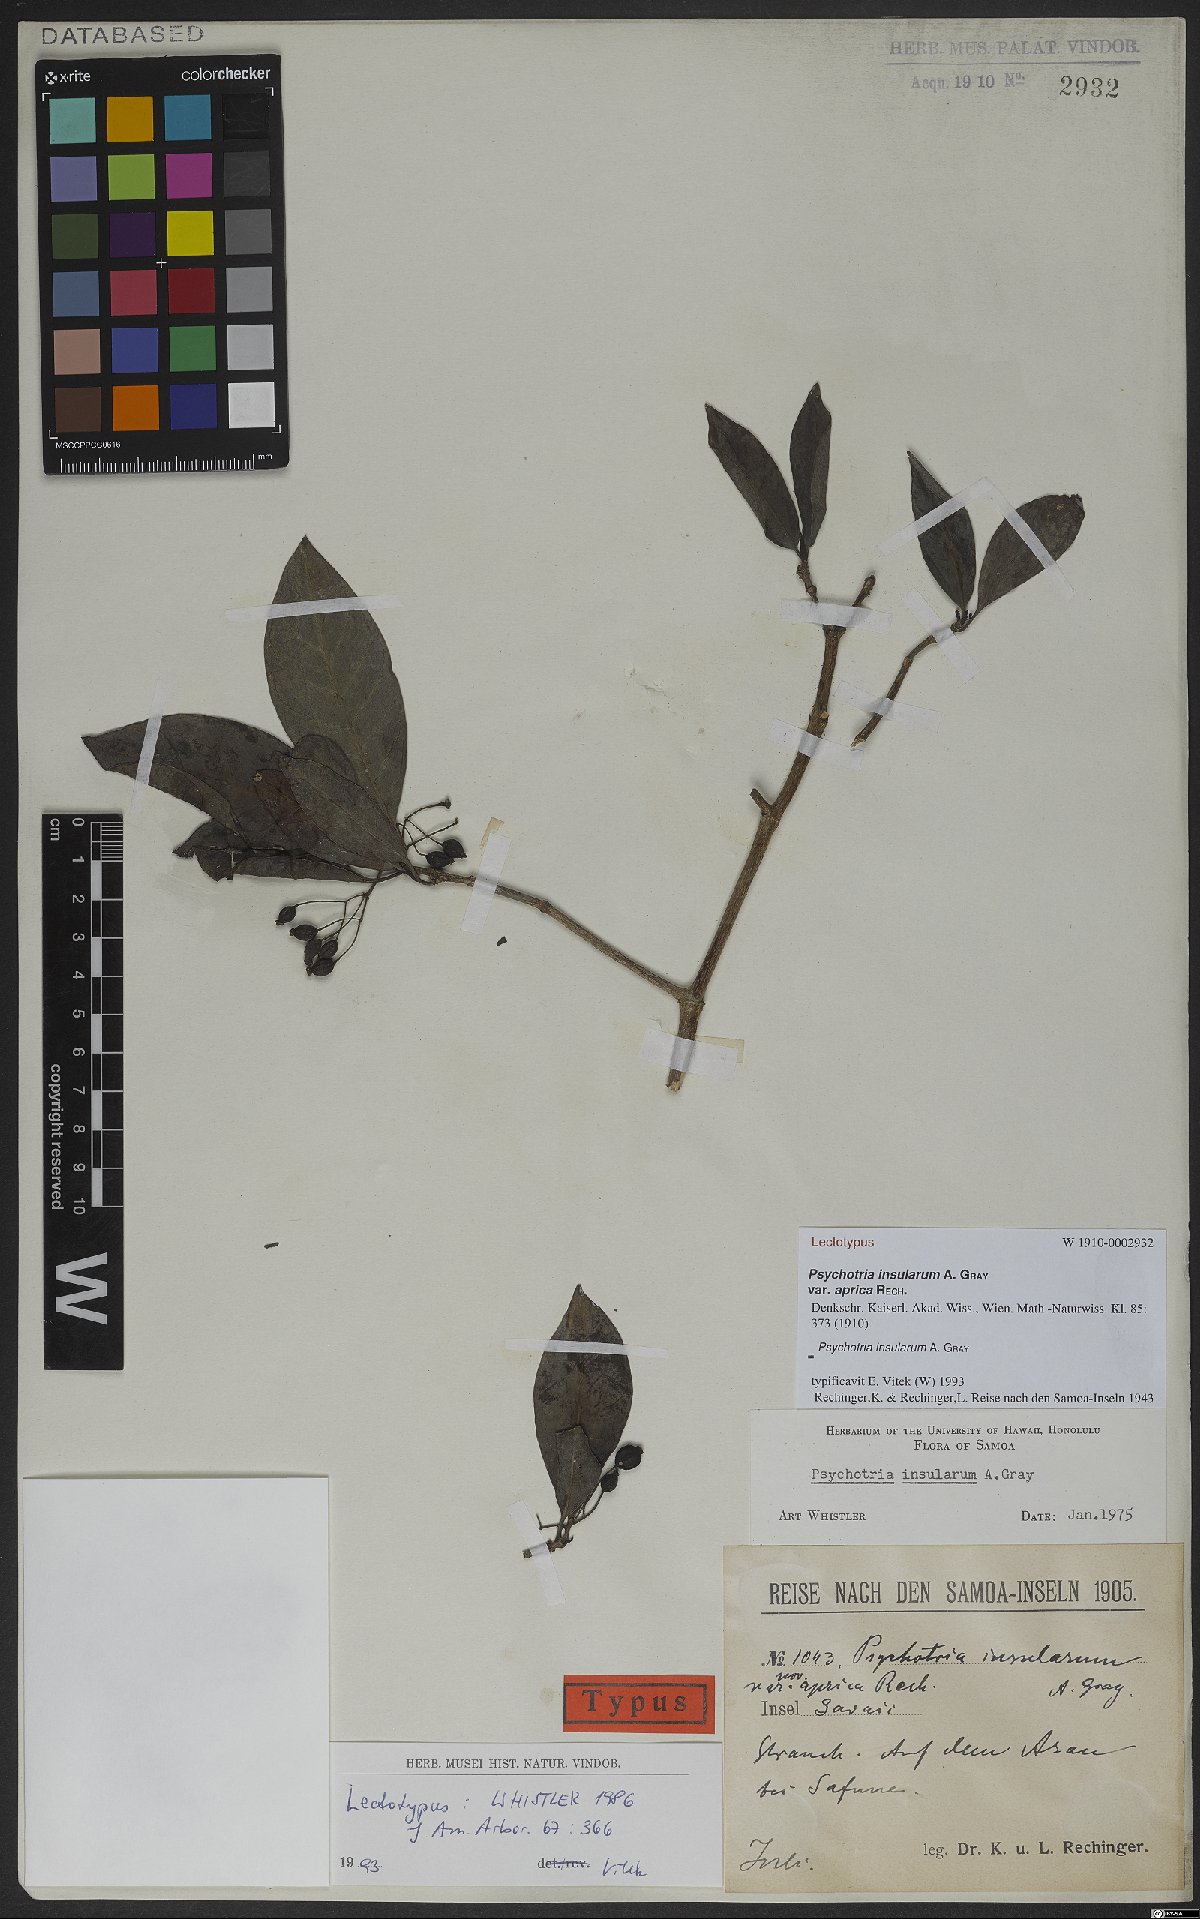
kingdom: Plantae
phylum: Tracheophyta
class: Magnoliopsida
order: Gentianales
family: Rubiaceae
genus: Psychotria
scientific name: Psychotria insularum
